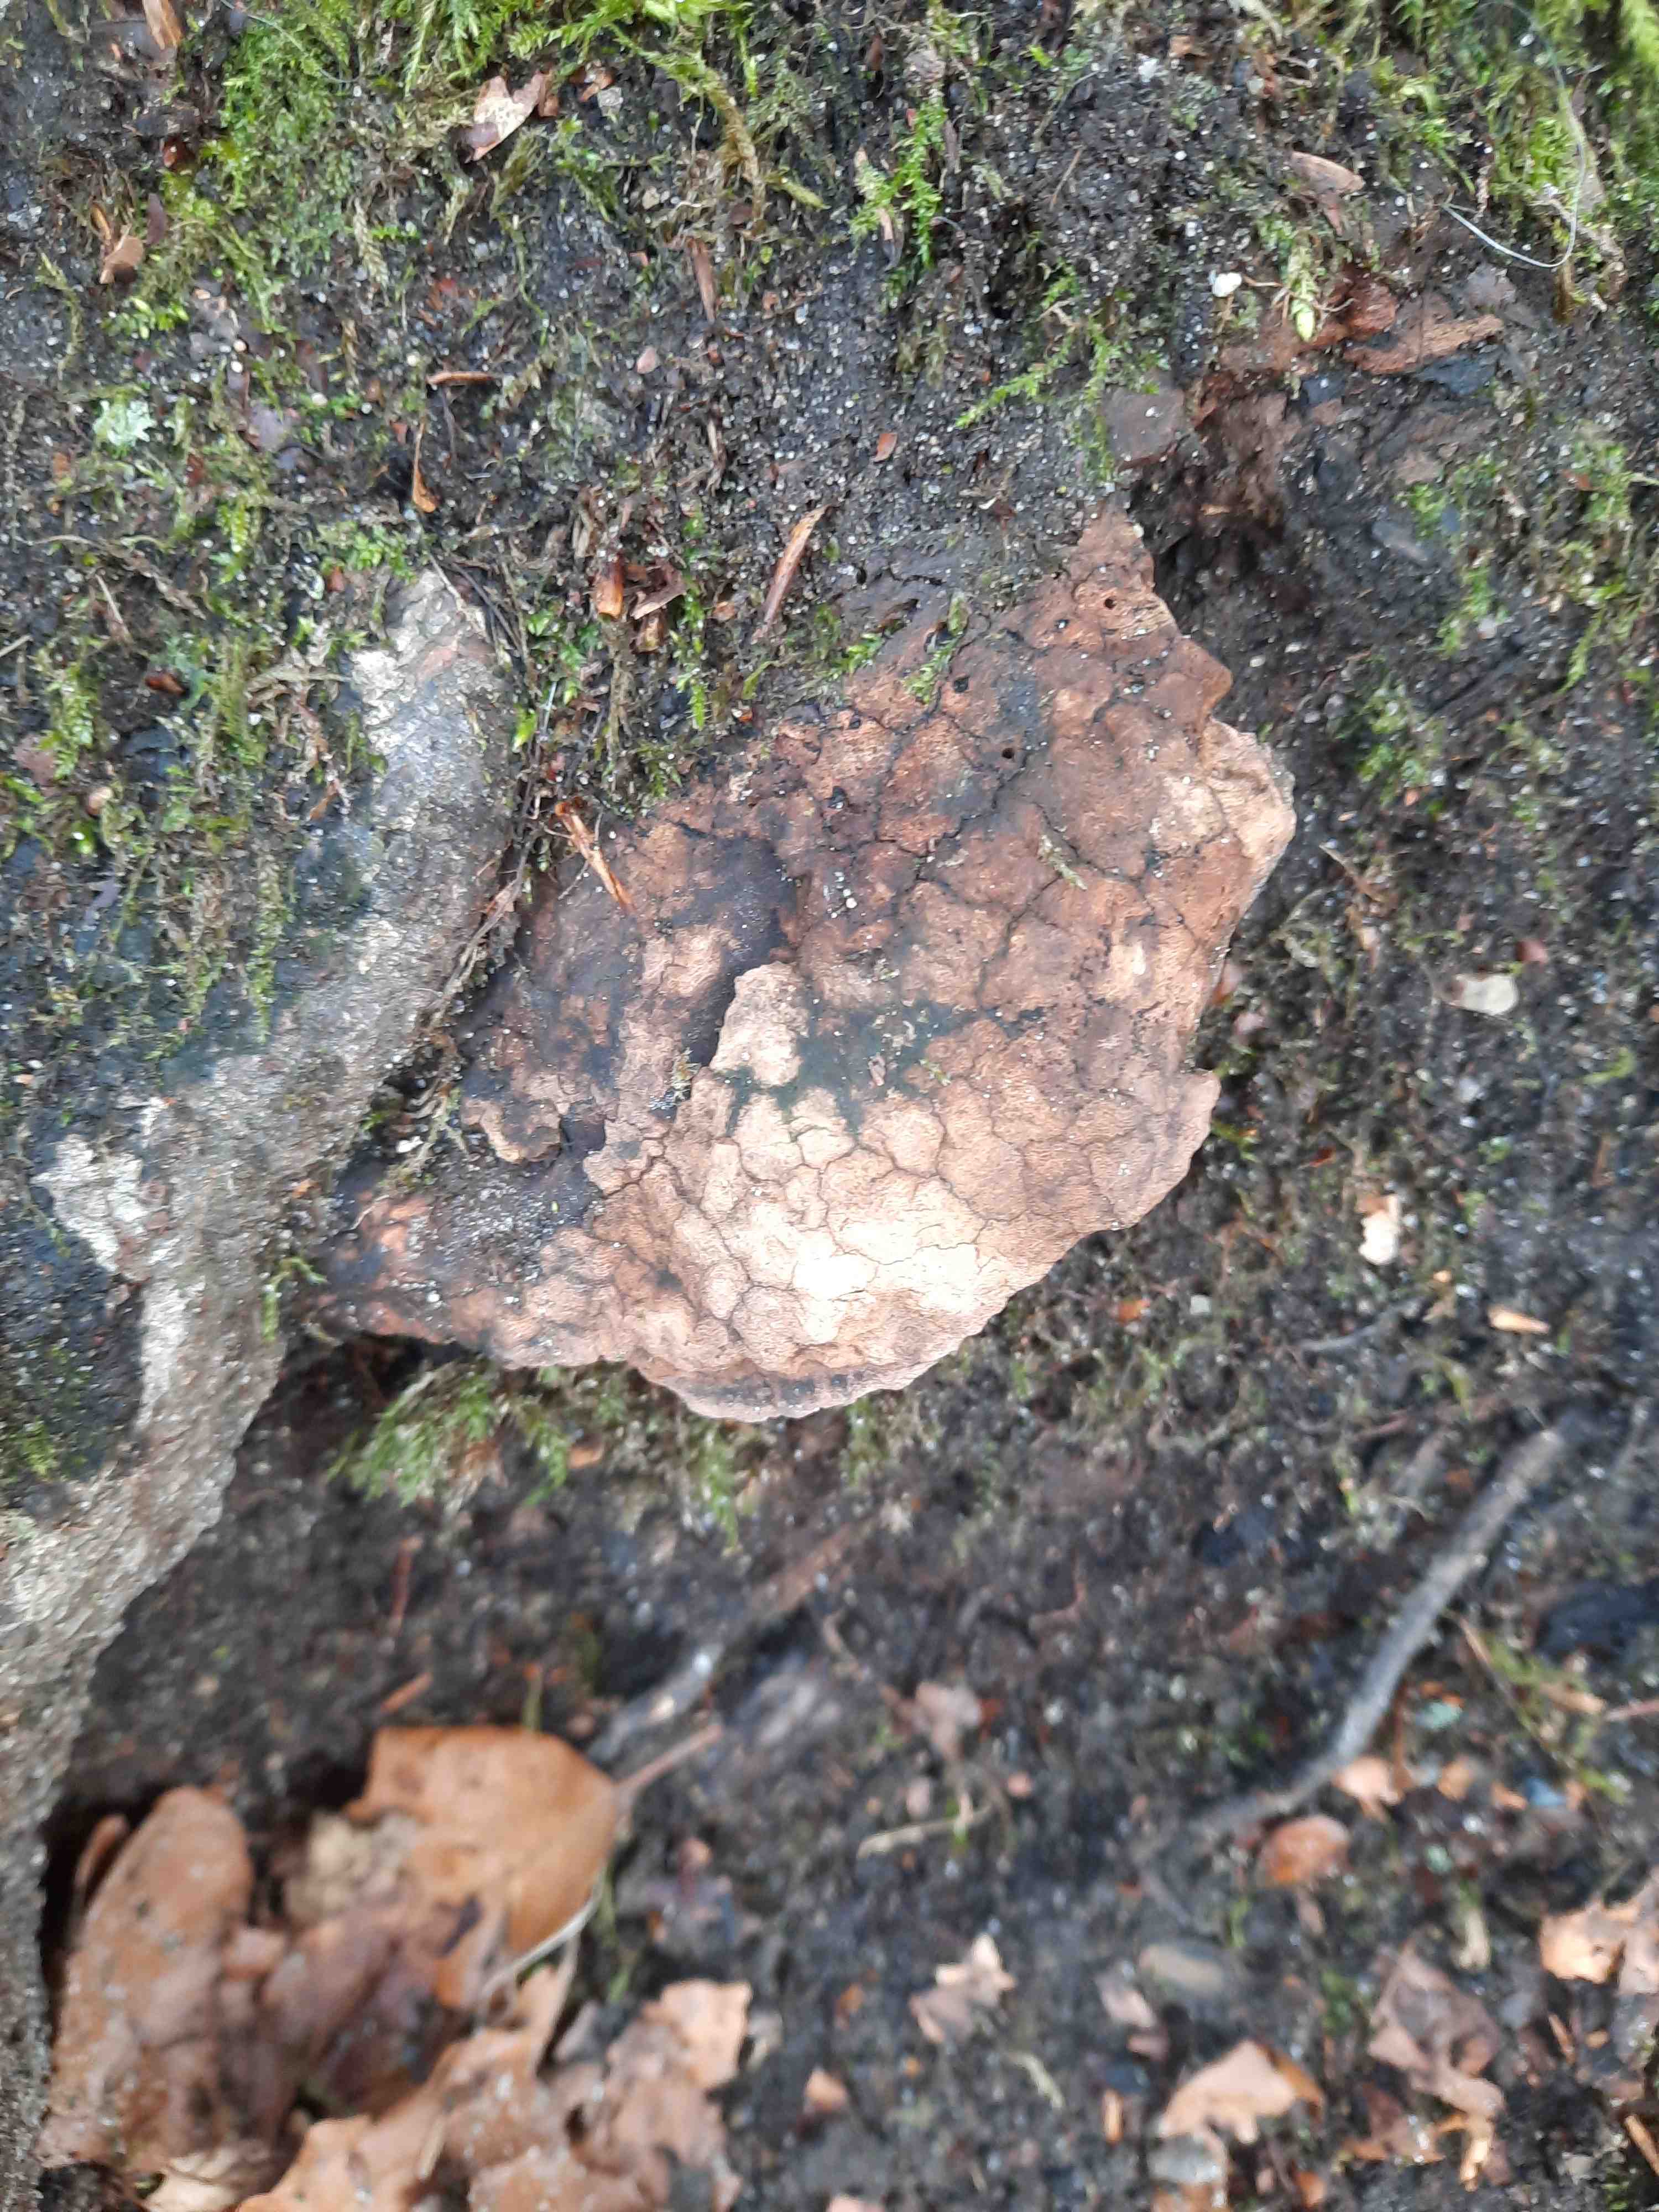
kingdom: Fungi
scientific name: Fungi
